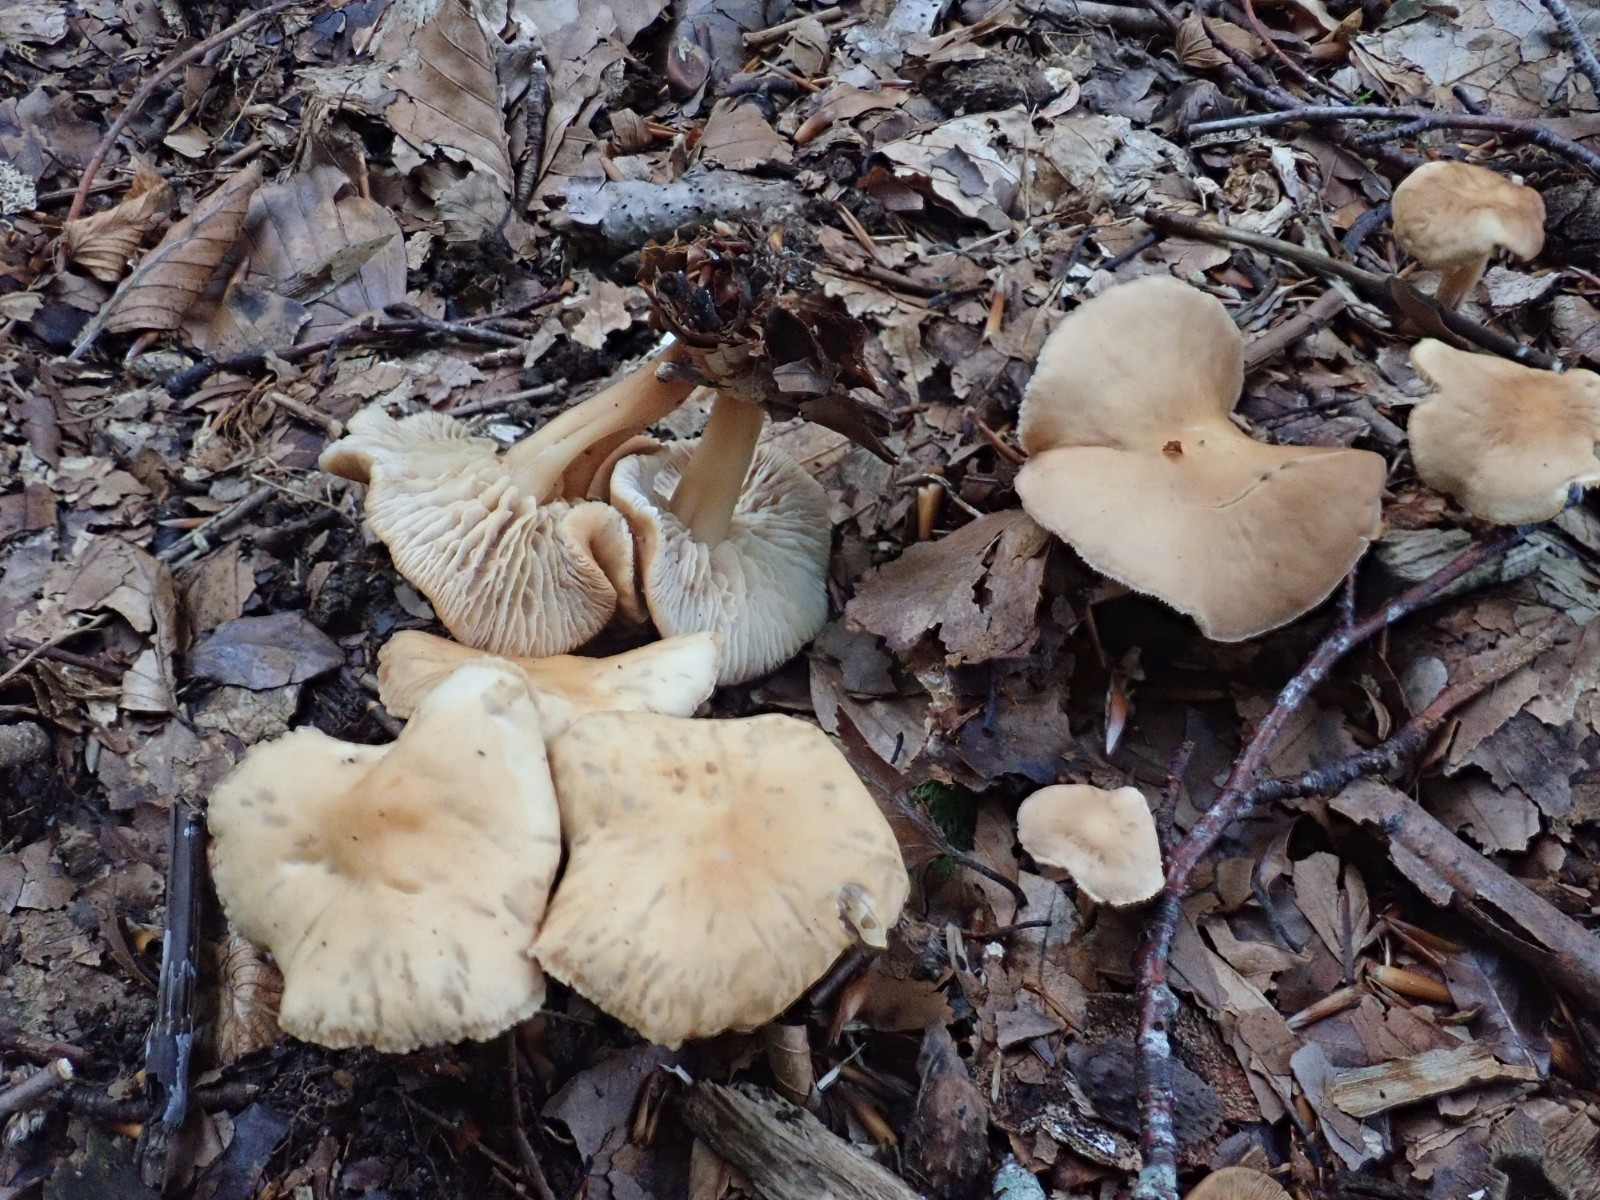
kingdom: Fungi
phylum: Basidiomycota
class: Agaricomycetes
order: Agaricales
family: Omphalotaceae
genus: Gymnopus
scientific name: Gymnopus
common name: fladhat
